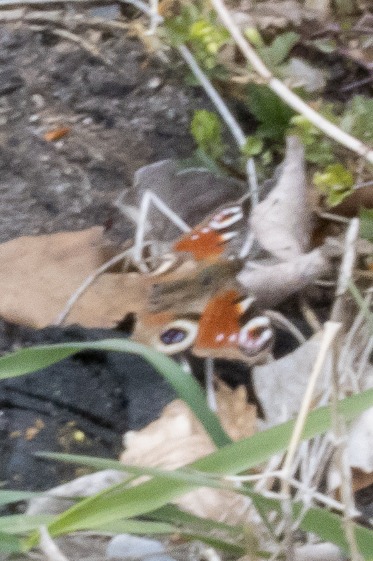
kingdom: Animalia
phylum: Arthropoda
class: Insecta
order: Lepidoptera
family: Nymphalidae
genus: Aglais
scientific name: Aglais io
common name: Dagpåfugleøje
